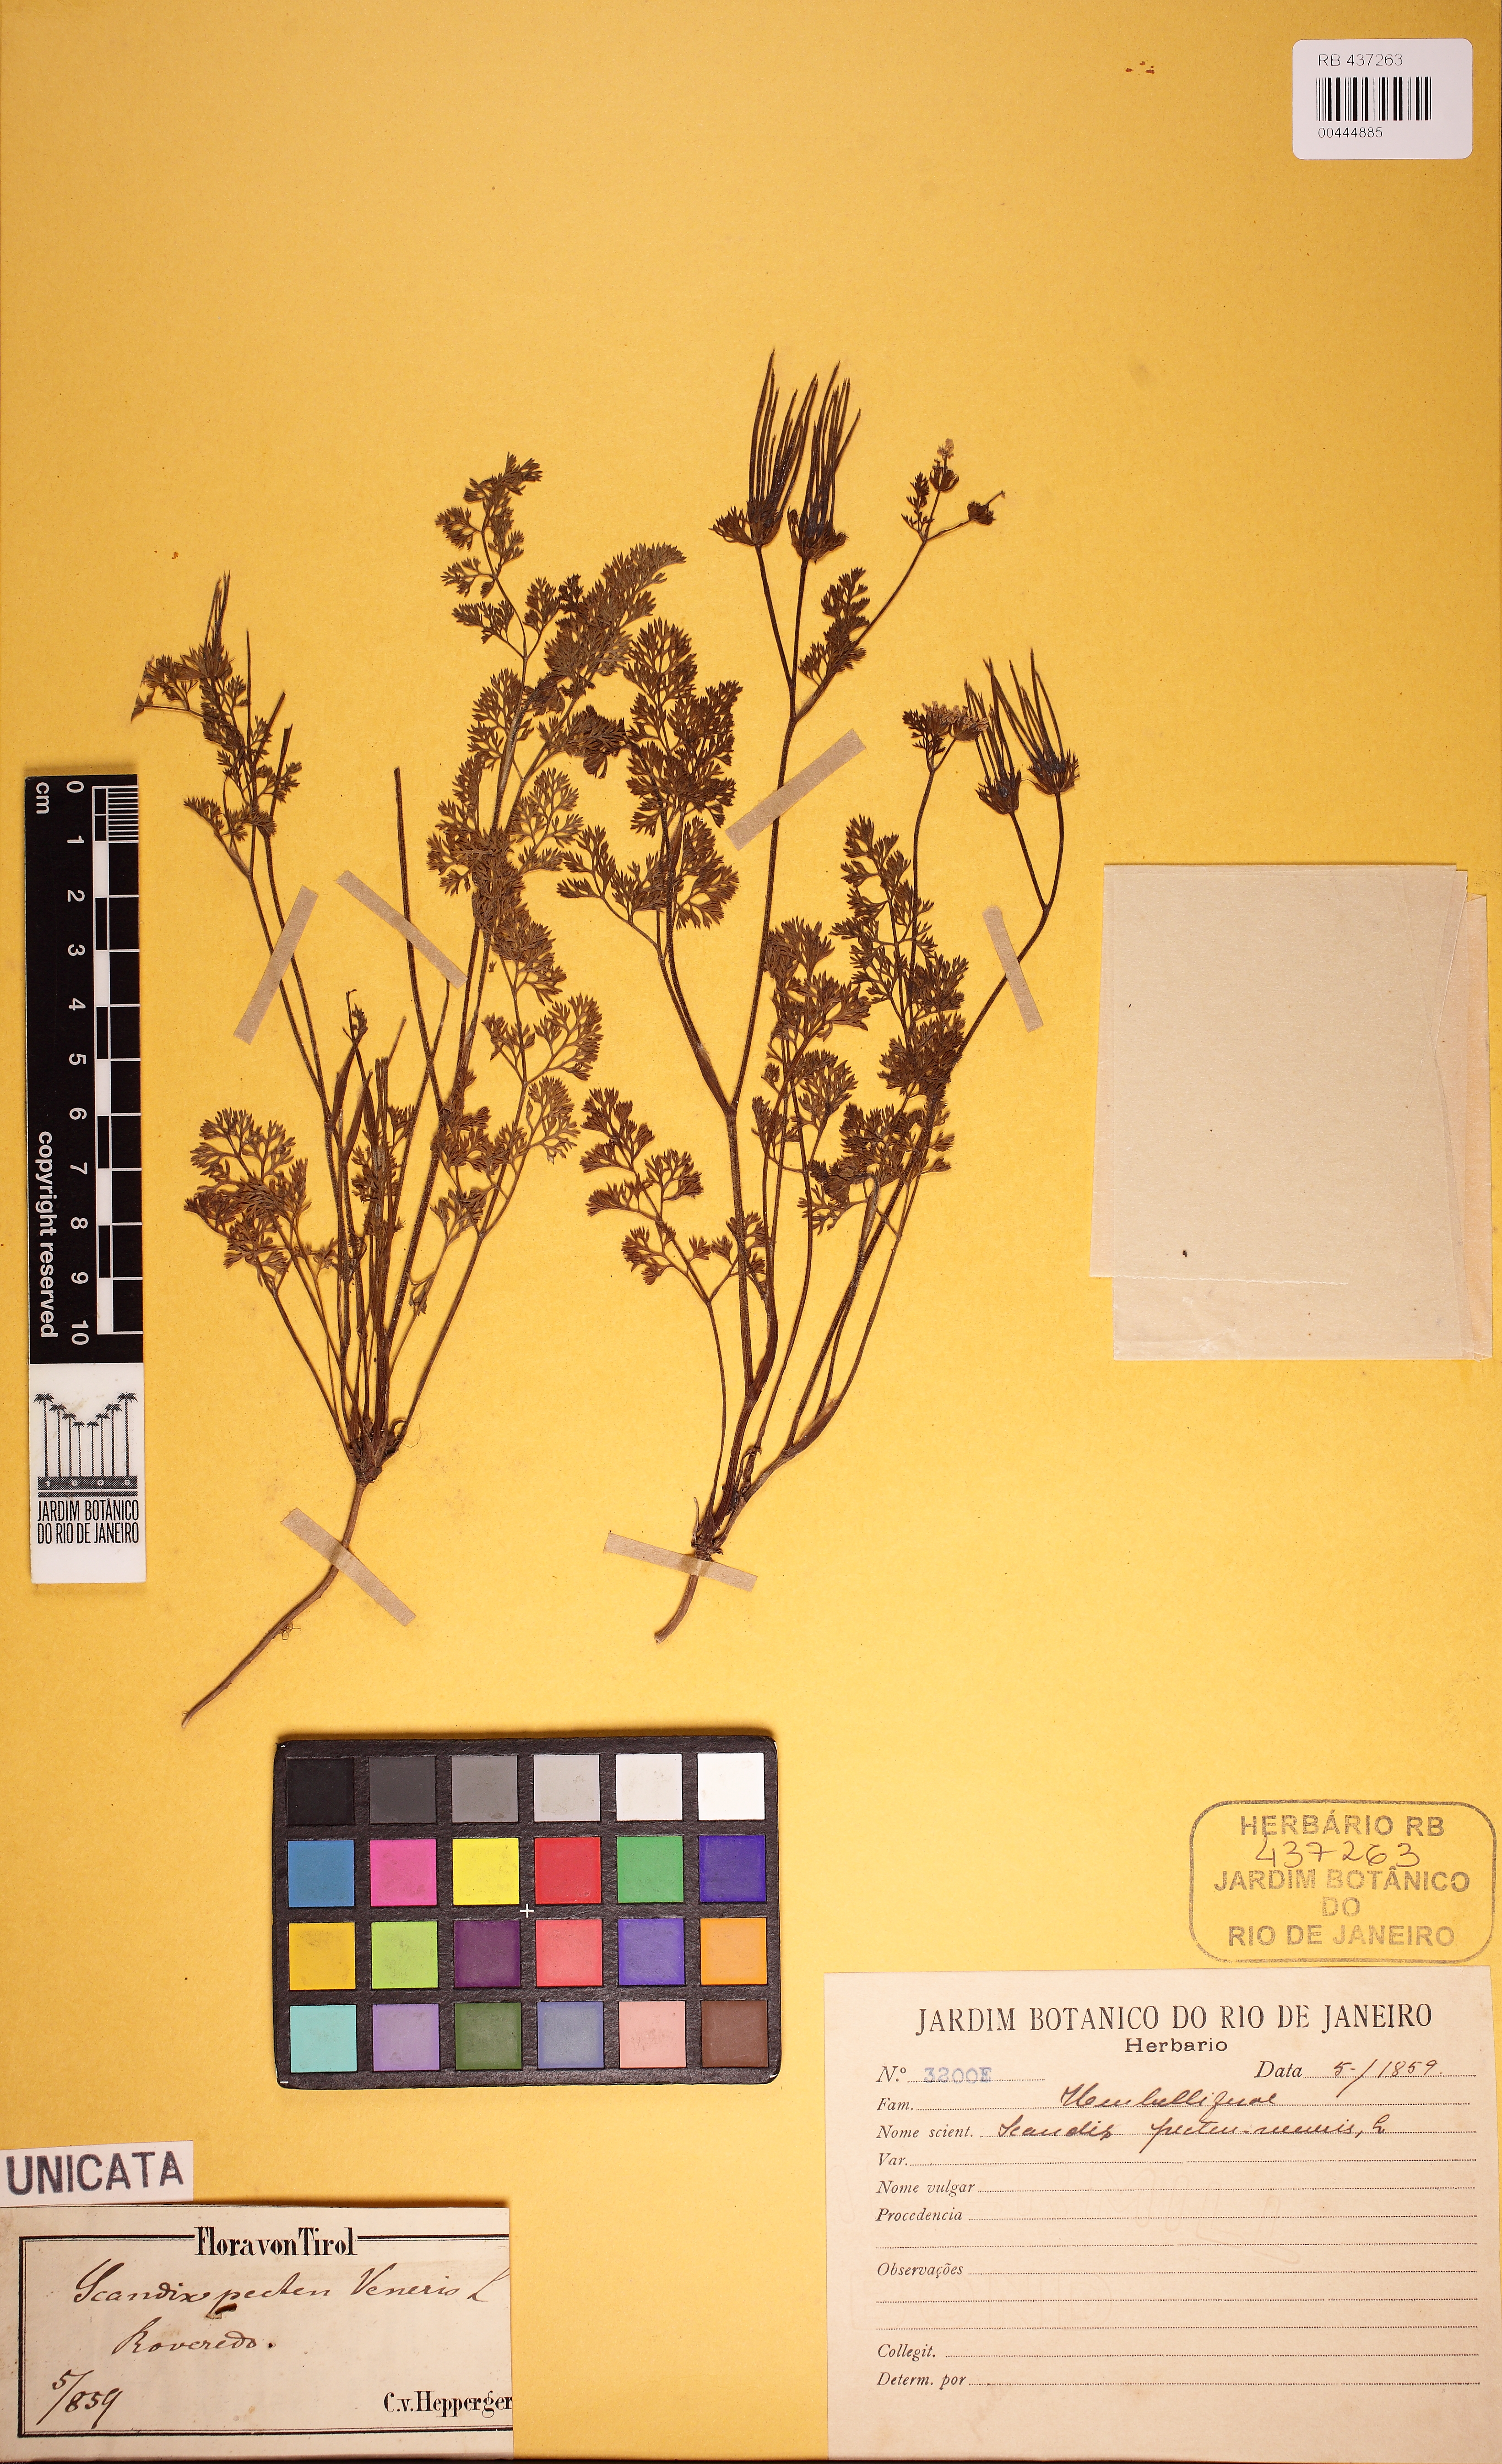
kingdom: Plantae
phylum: Tracheophyta
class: Magnoliopsida
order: Apiales
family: Apiaceae
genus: Scandix
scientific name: Scandix pecten-veneris
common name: Shepherd's-needle
